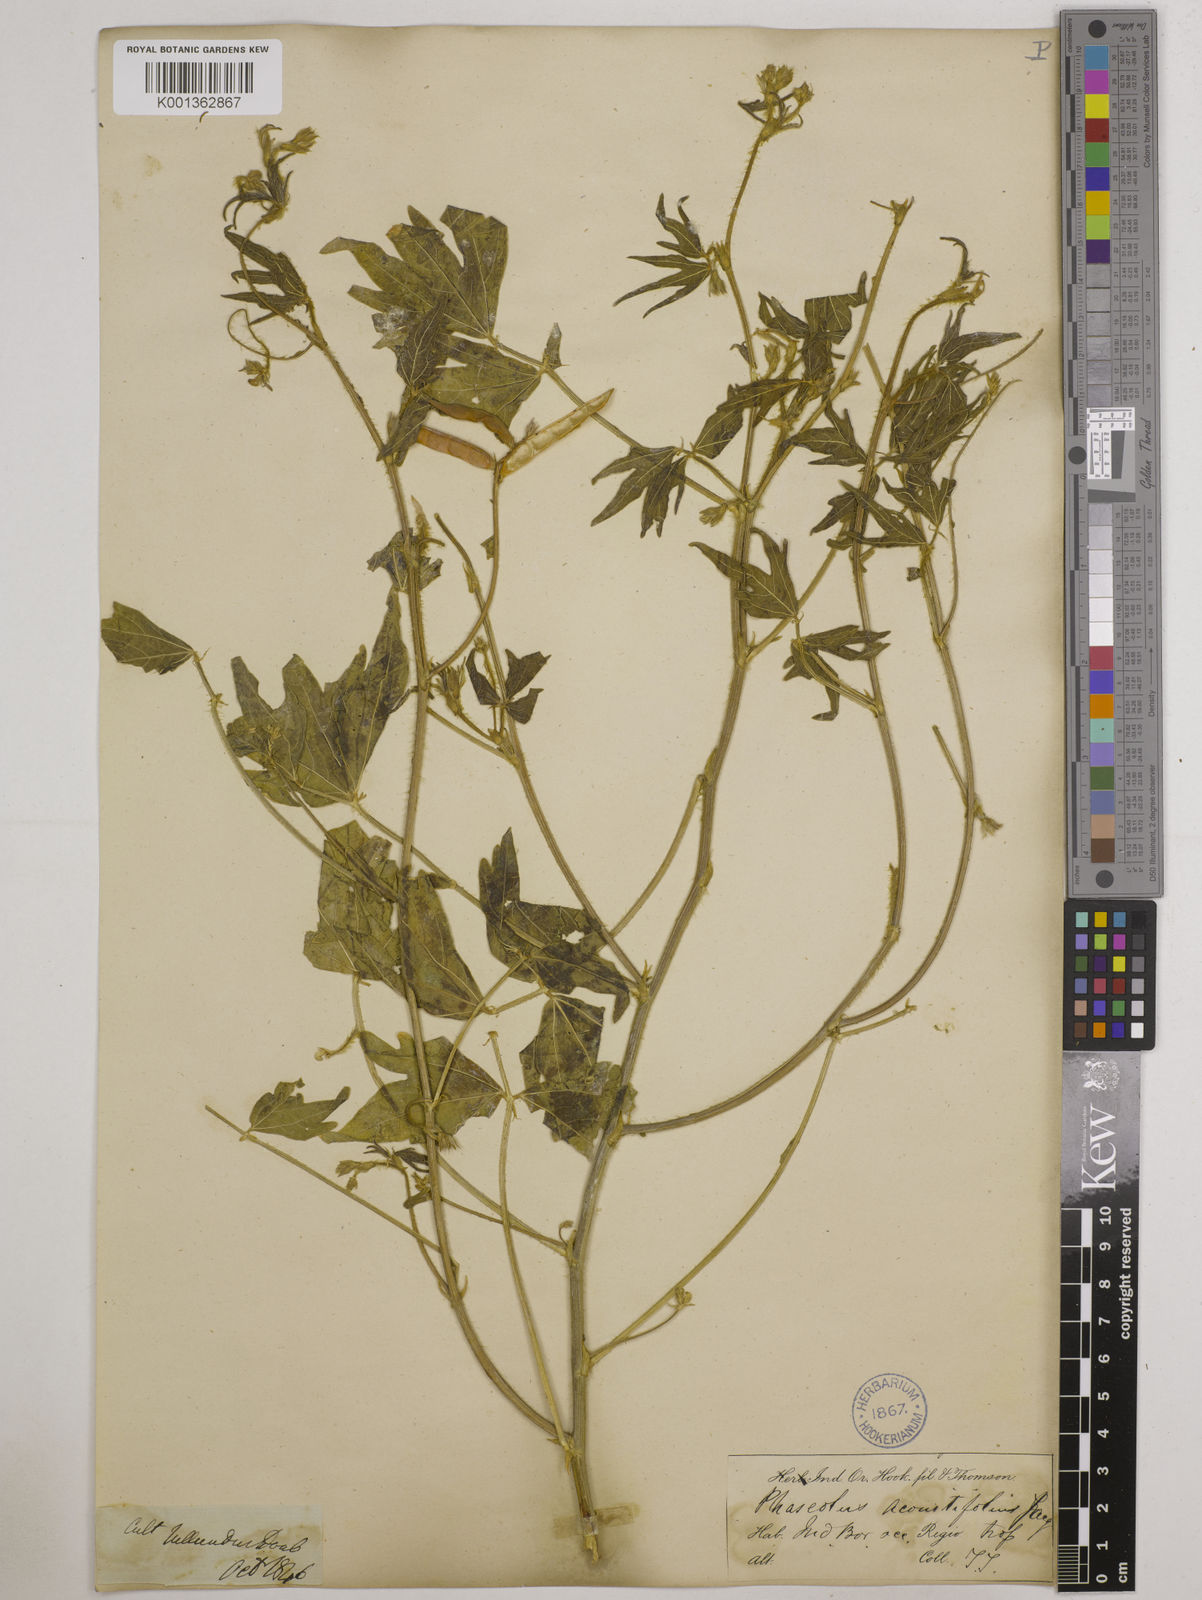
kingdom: Plantae
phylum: Tracheophyta
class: Magnoliopsida
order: Fabales
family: Fabaceae
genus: Vigna
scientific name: Vigna aconitifolia
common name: Dew bean
